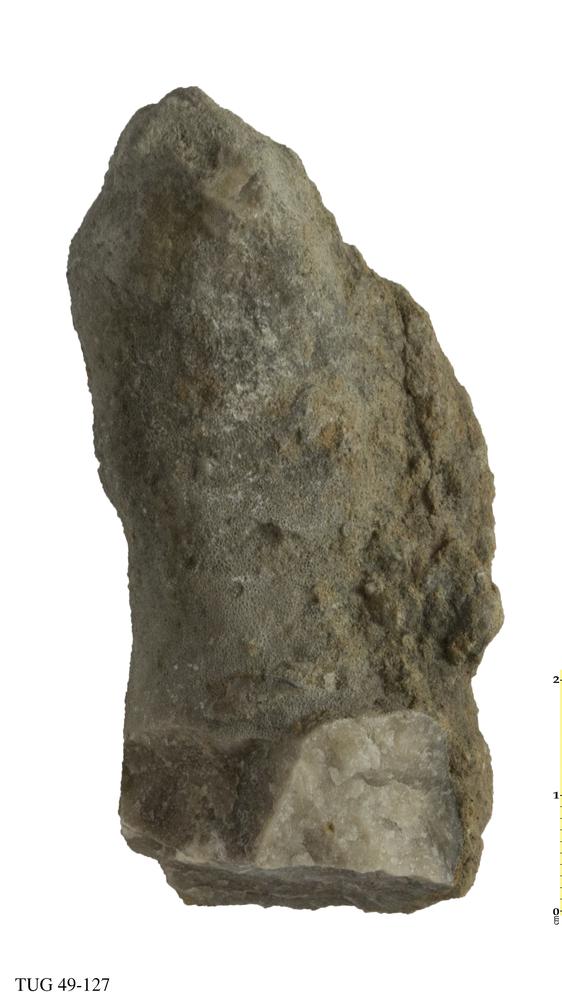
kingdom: Animalia
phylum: Bryozoa
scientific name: Bryozoa
